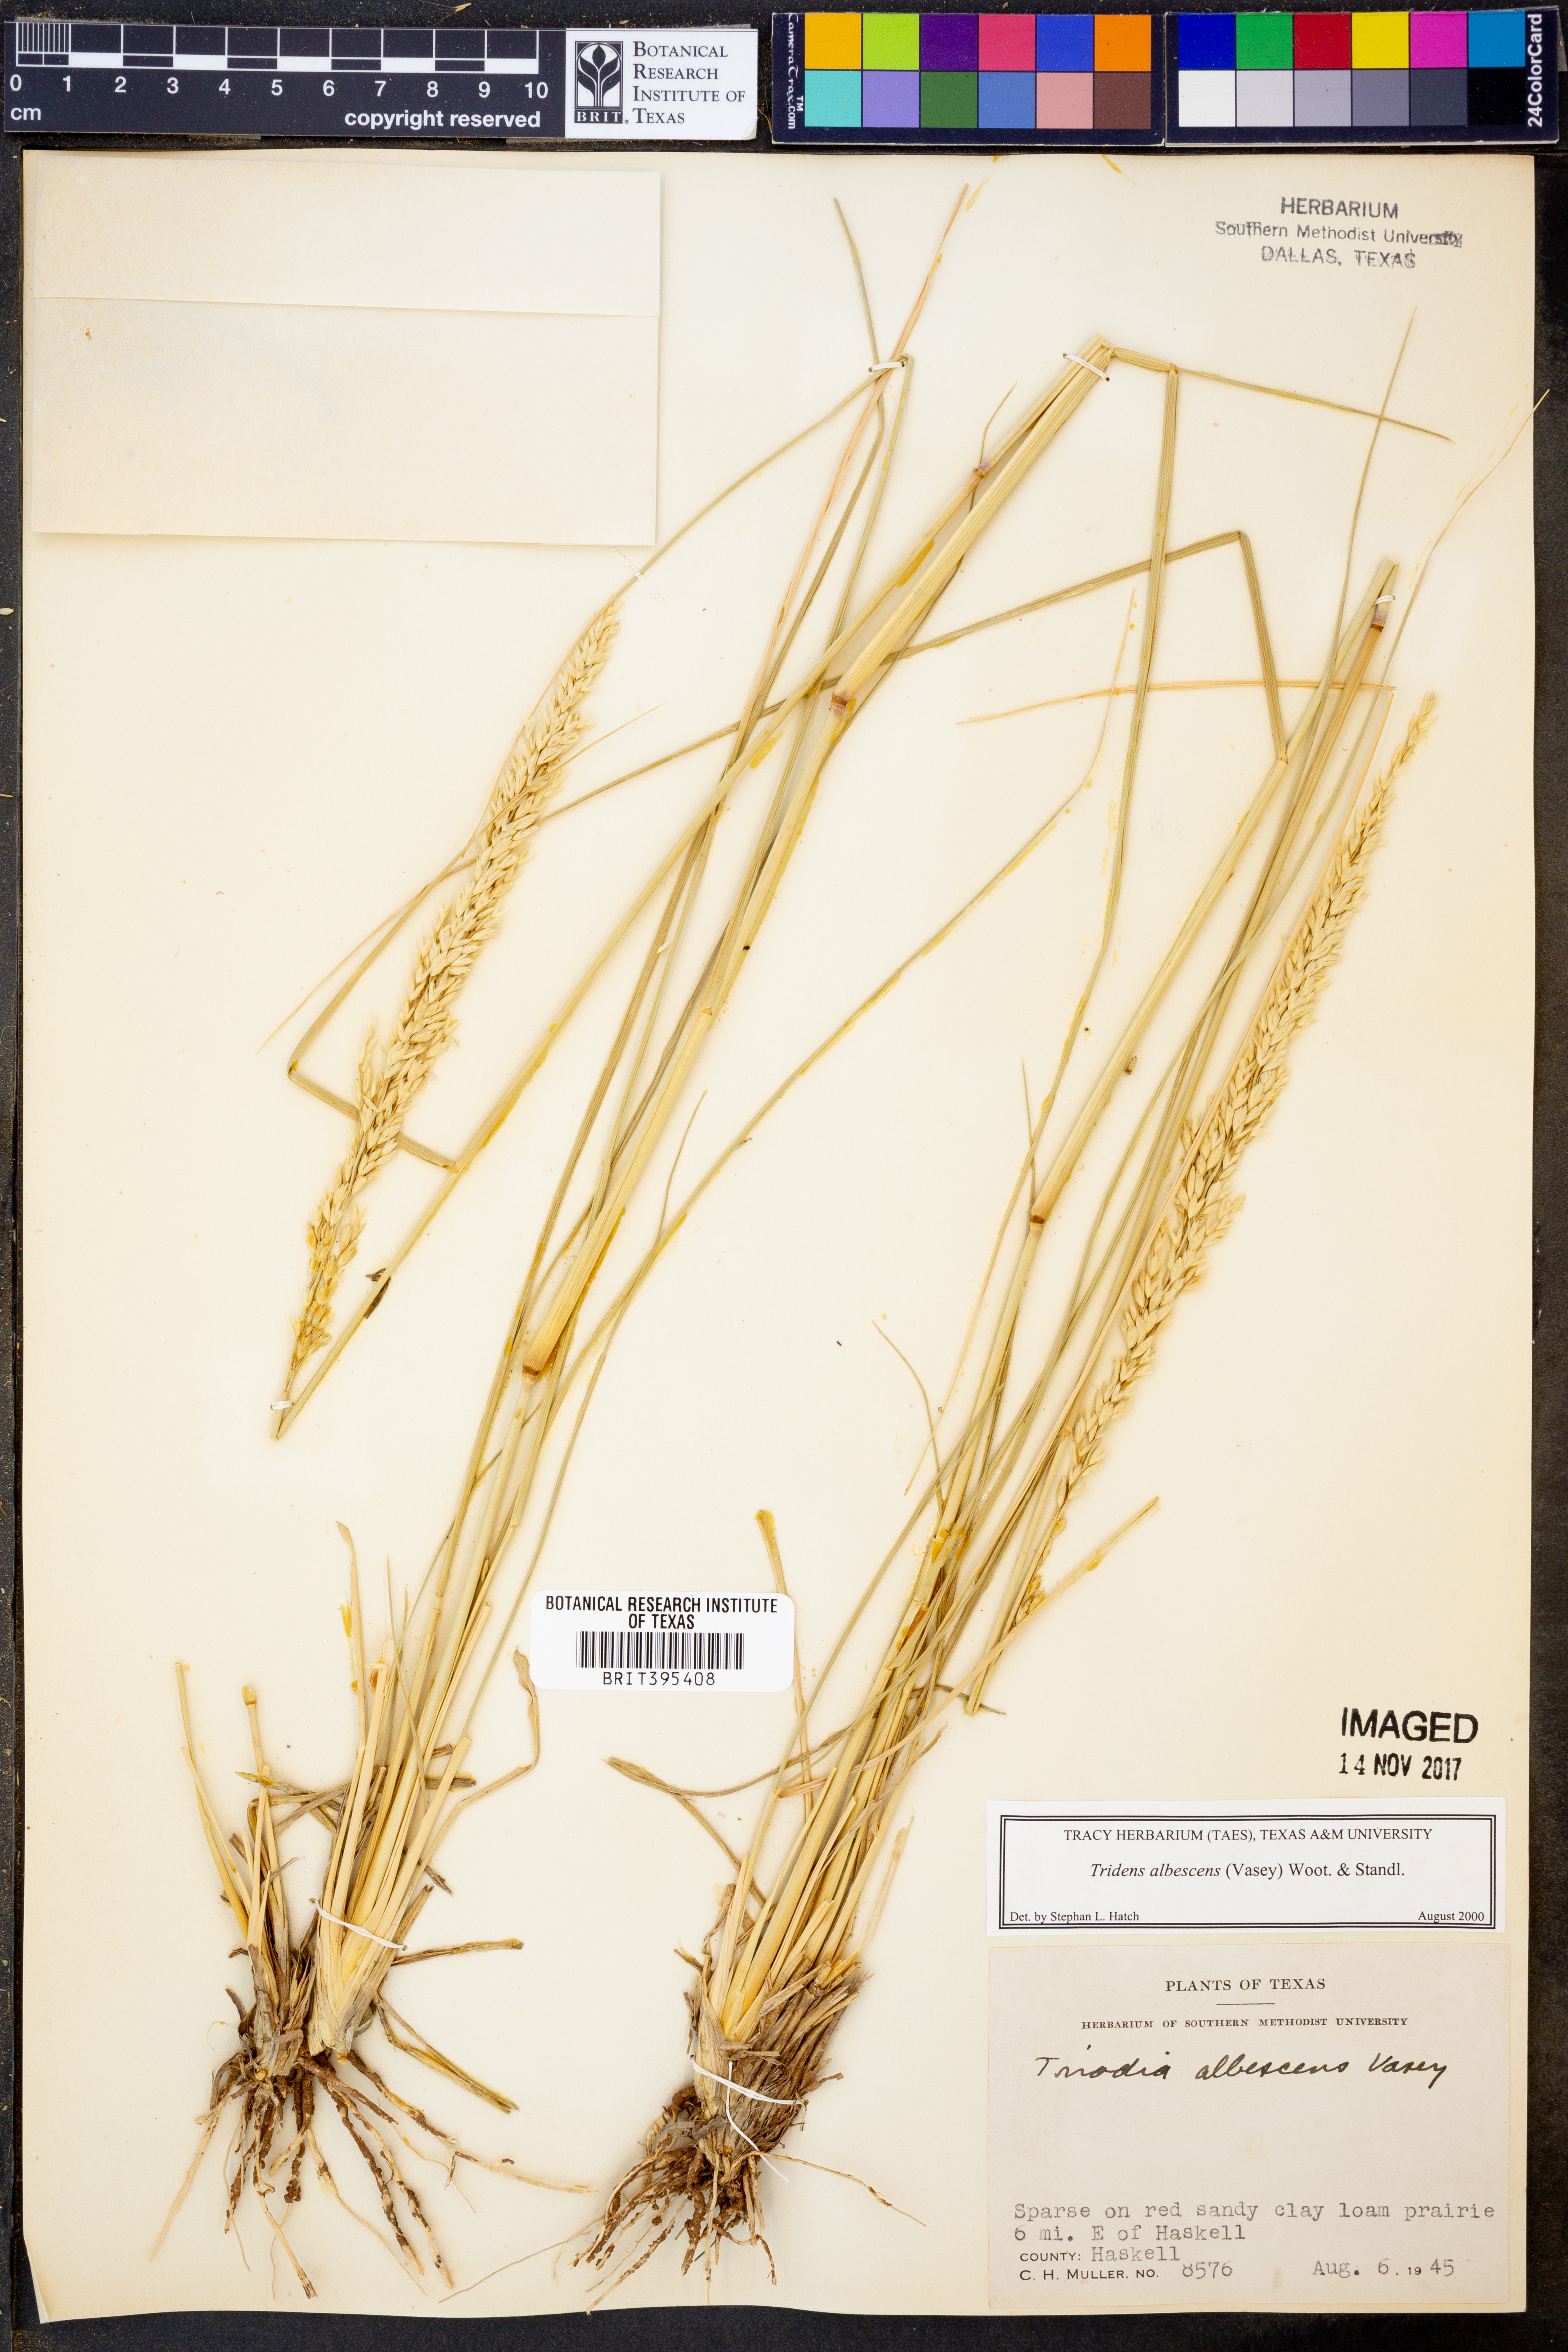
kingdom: Plantae
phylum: Tracheophyta
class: Liliopsida
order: Poales
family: Poaceae
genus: Tridens
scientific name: Tridens albescens
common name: White tridens
